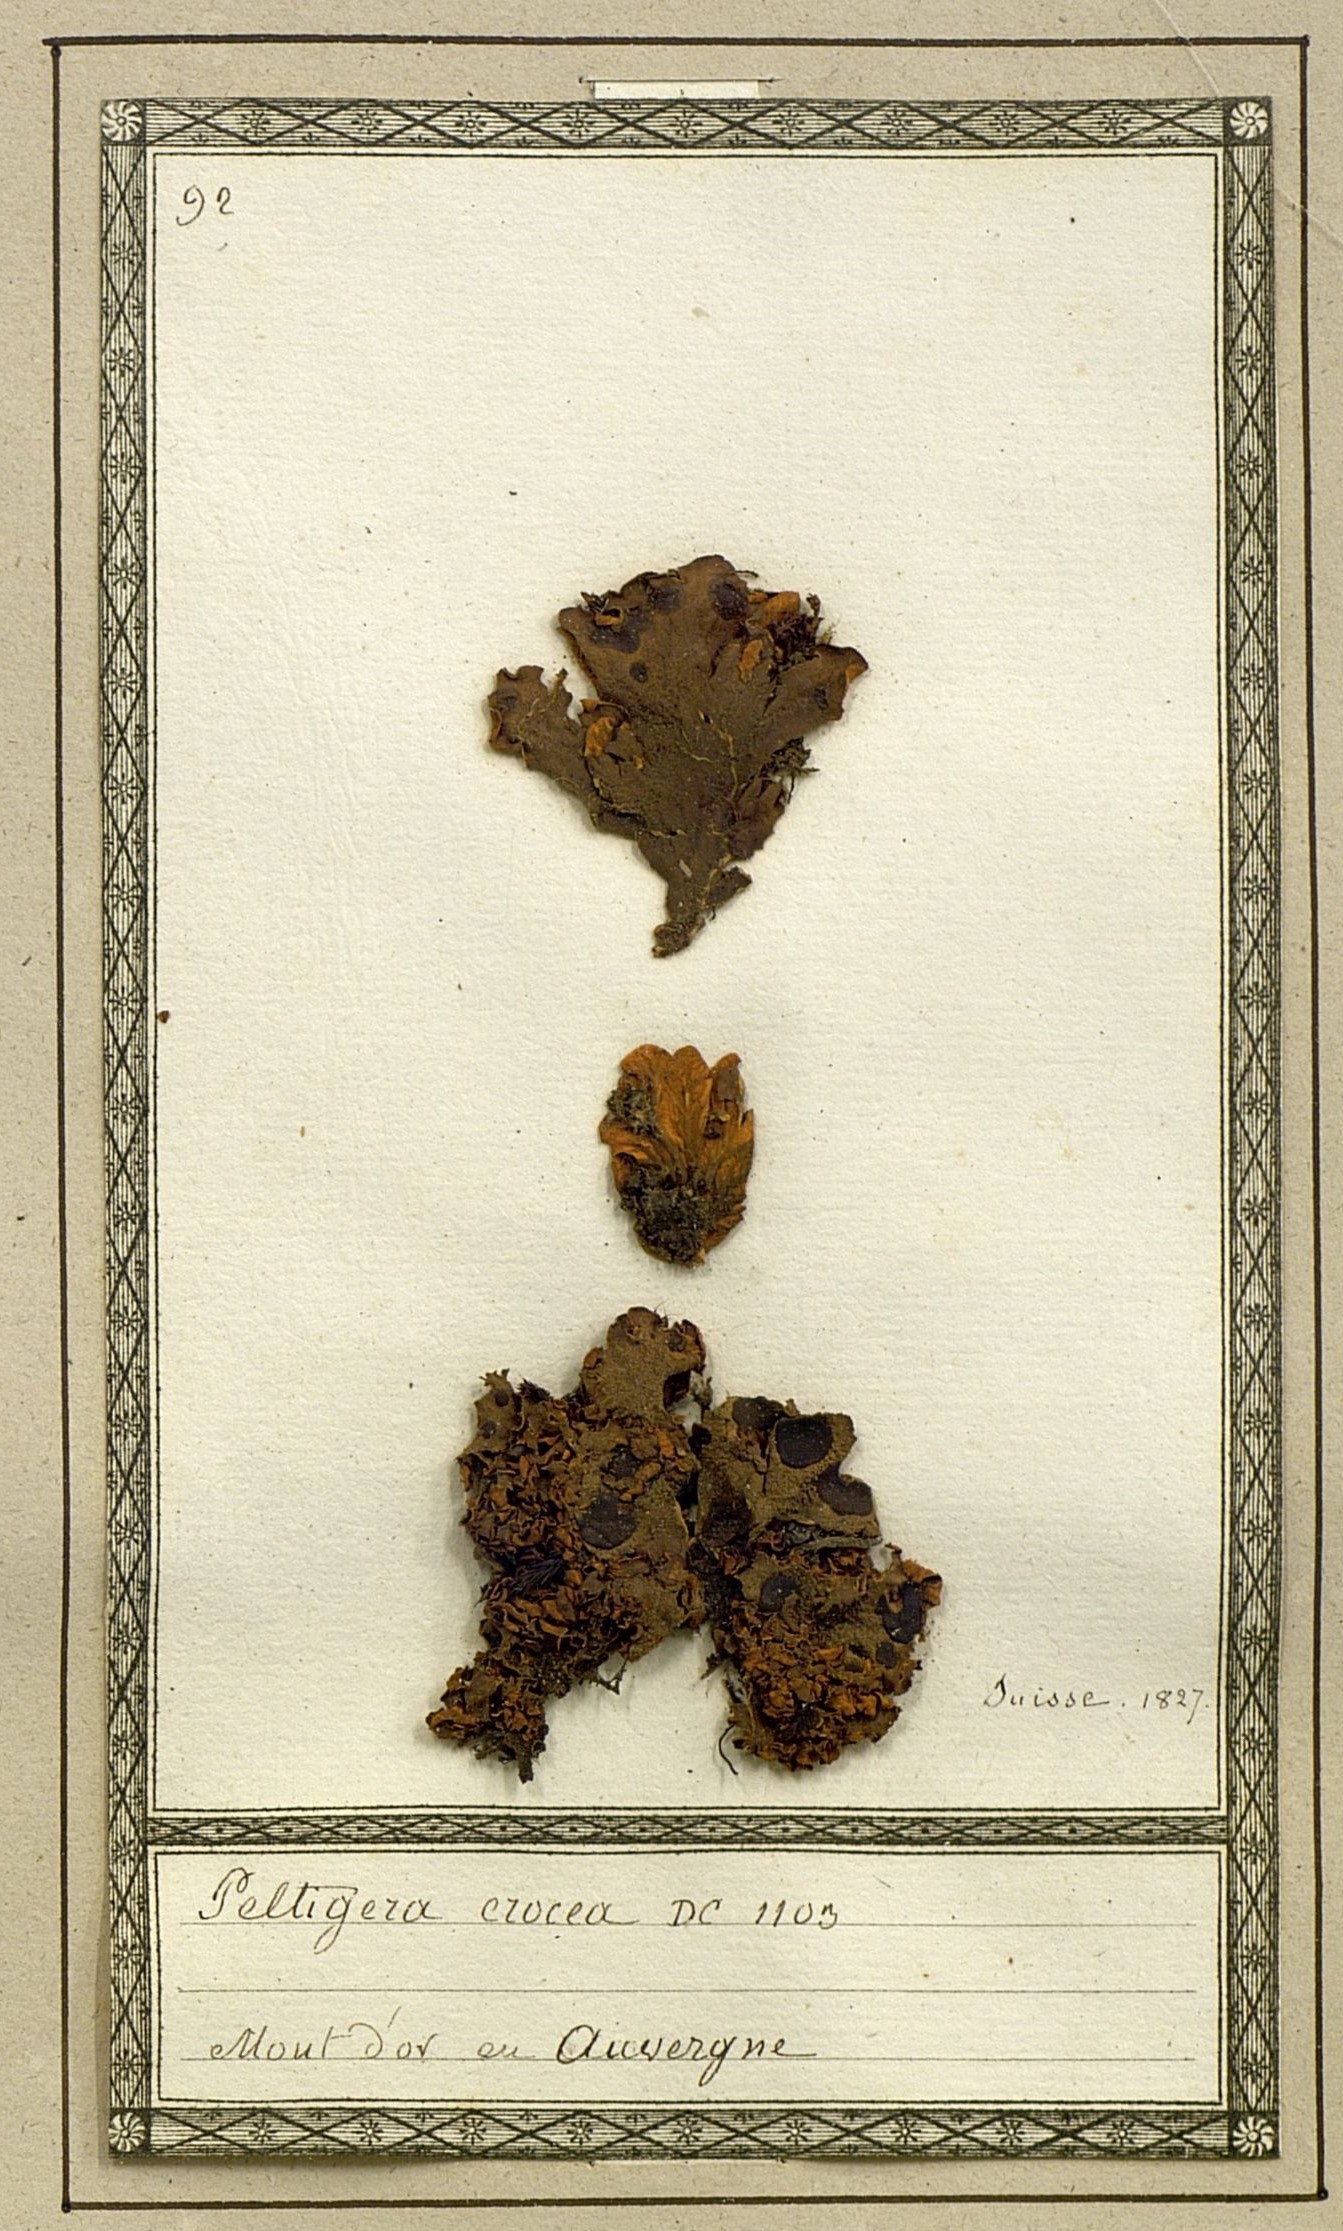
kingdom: Fungi
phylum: Ascomycota
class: Lecanoromycetes
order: Peltigerales
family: Peltigeraceae
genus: Solorina
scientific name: Solorina crocea
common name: Mountain saffron
